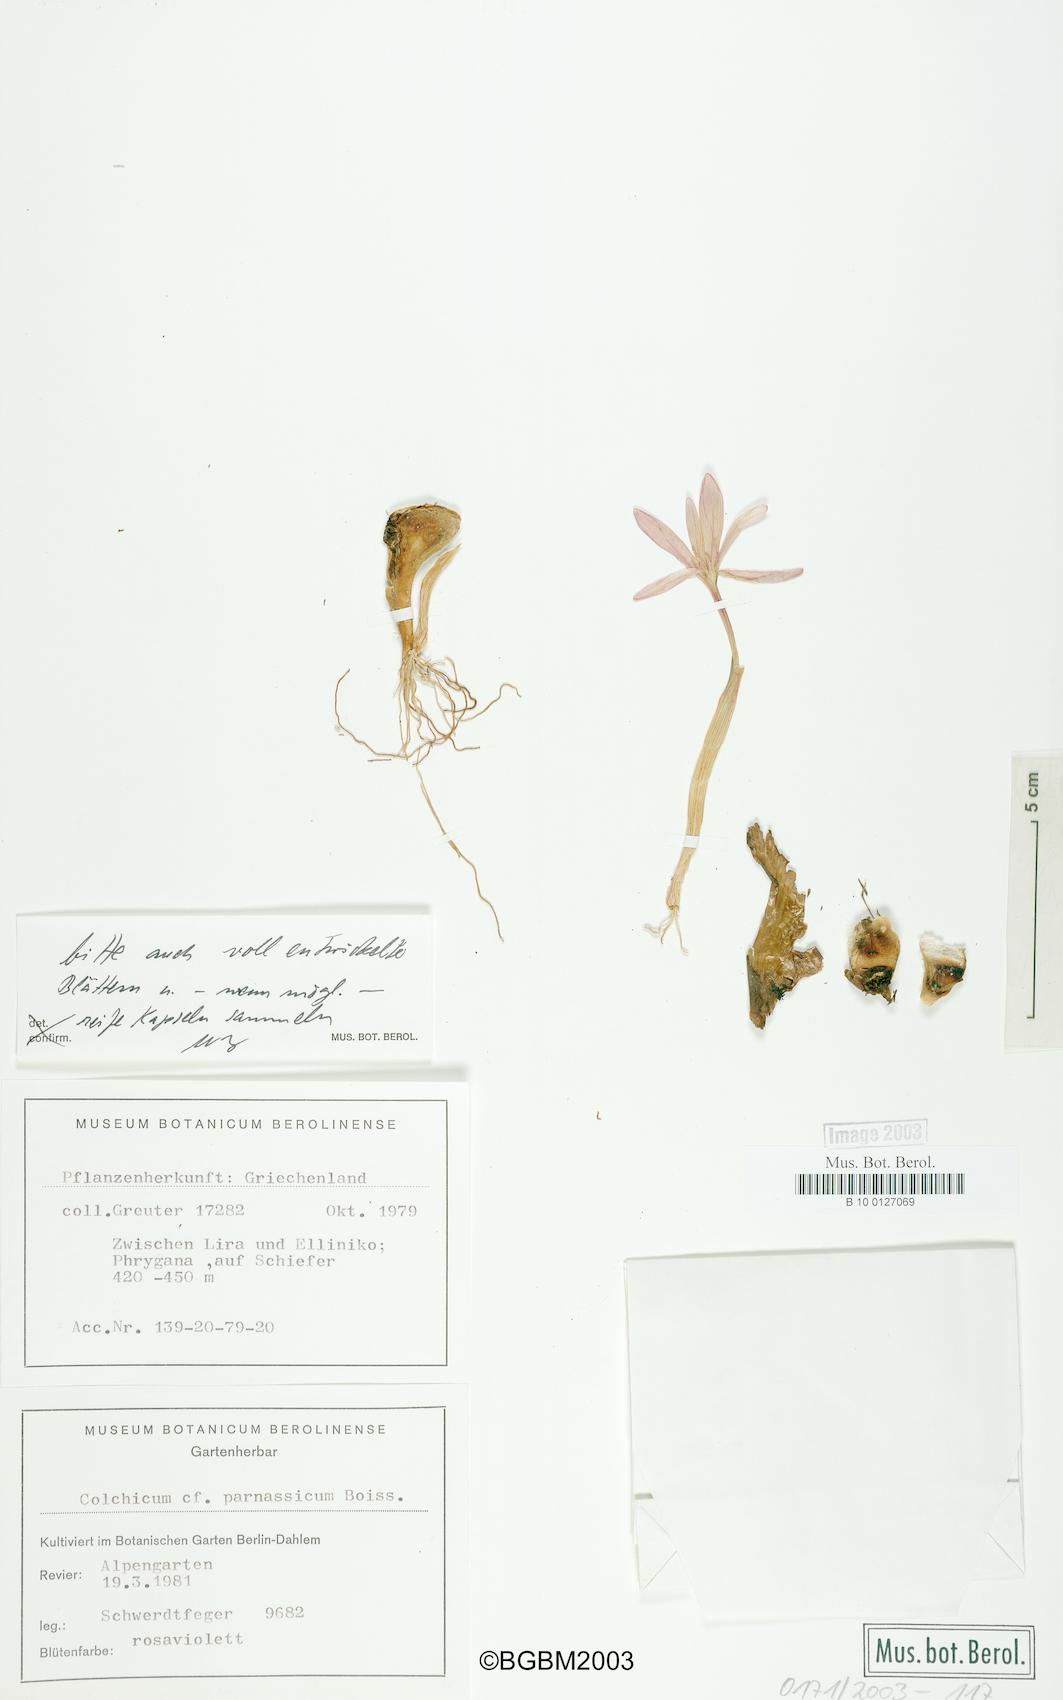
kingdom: Plantae
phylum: Tracheophyta
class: Liliopsida
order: Liliales
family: Colchicaceae
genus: Colchicum
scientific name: Colchicum parnassicum
